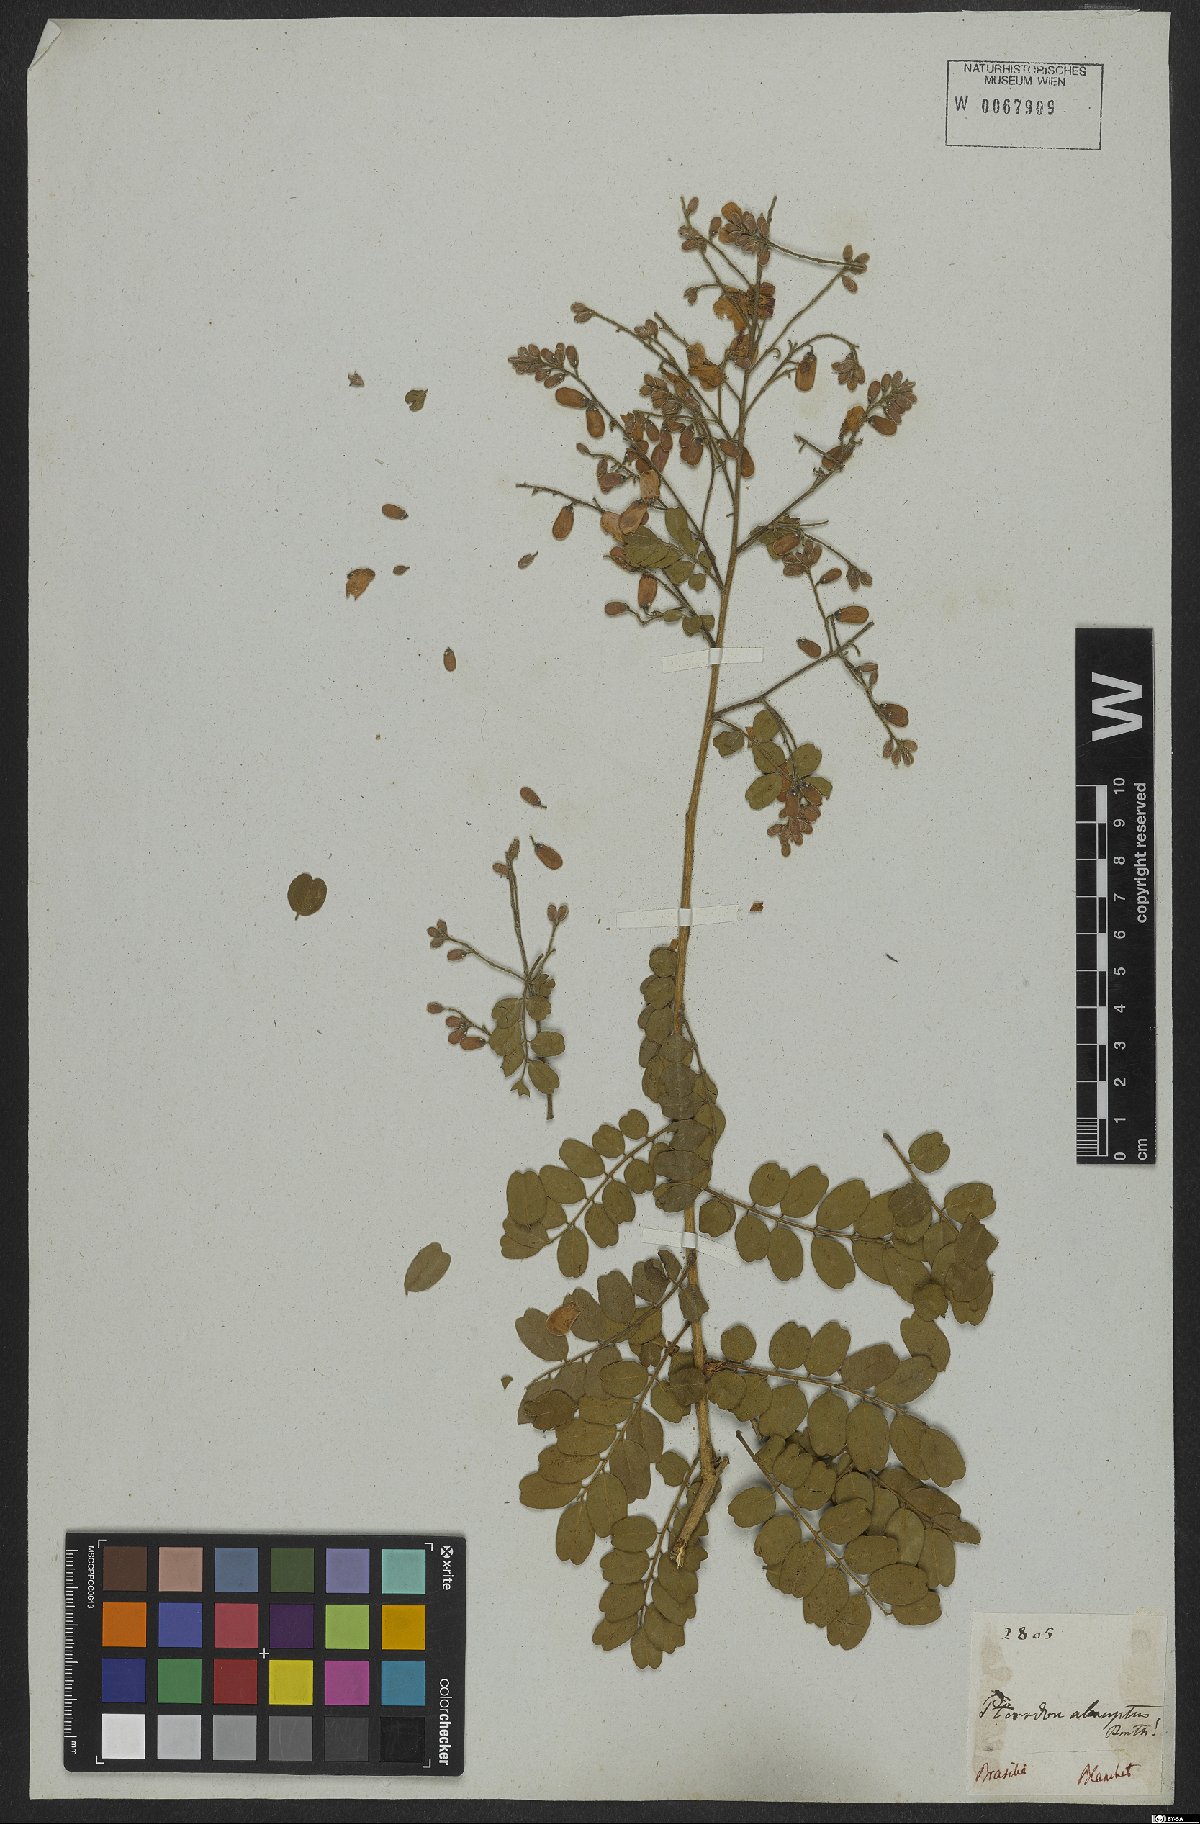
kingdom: Plantae
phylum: Tracheophyta
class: Magnoliopsida
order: Fabales
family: Fabaceae
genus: Pterodon
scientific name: Pterodon abruptus
